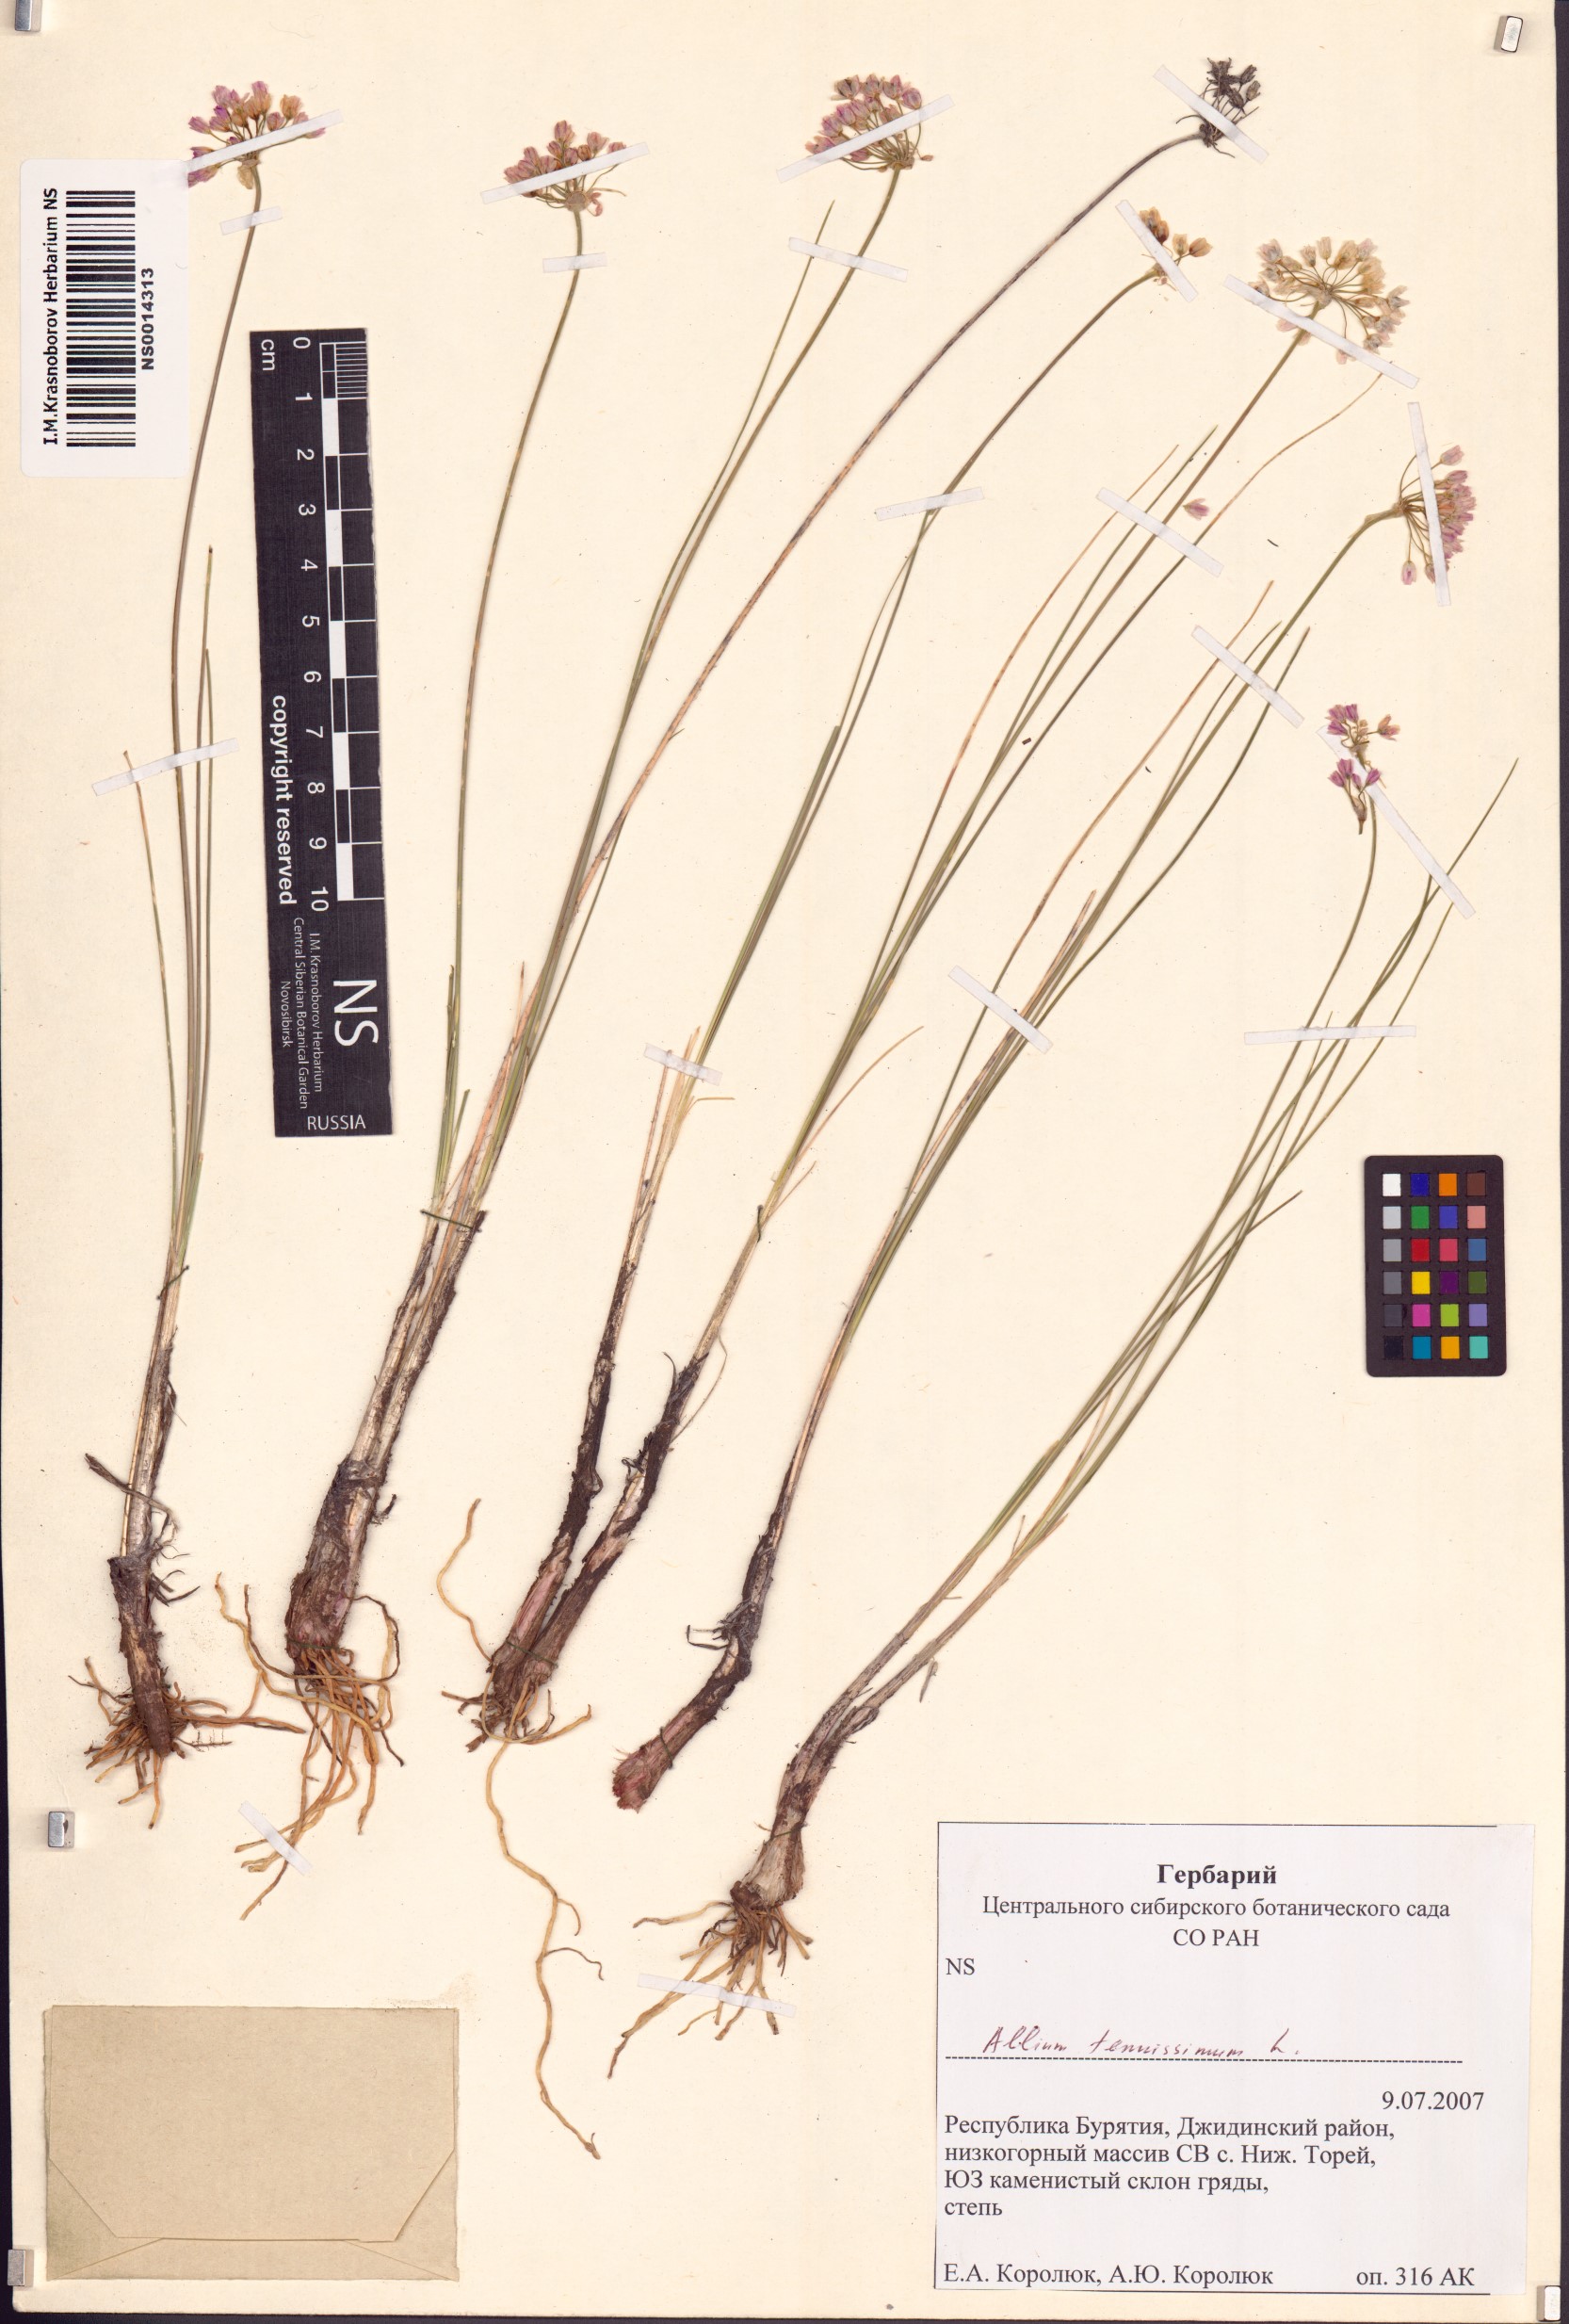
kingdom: Plantae
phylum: Tracheophyta
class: Liliopsida
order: Asparagales
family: Amaryllidaceae
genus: Allium
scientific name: Allium tenuissimum
